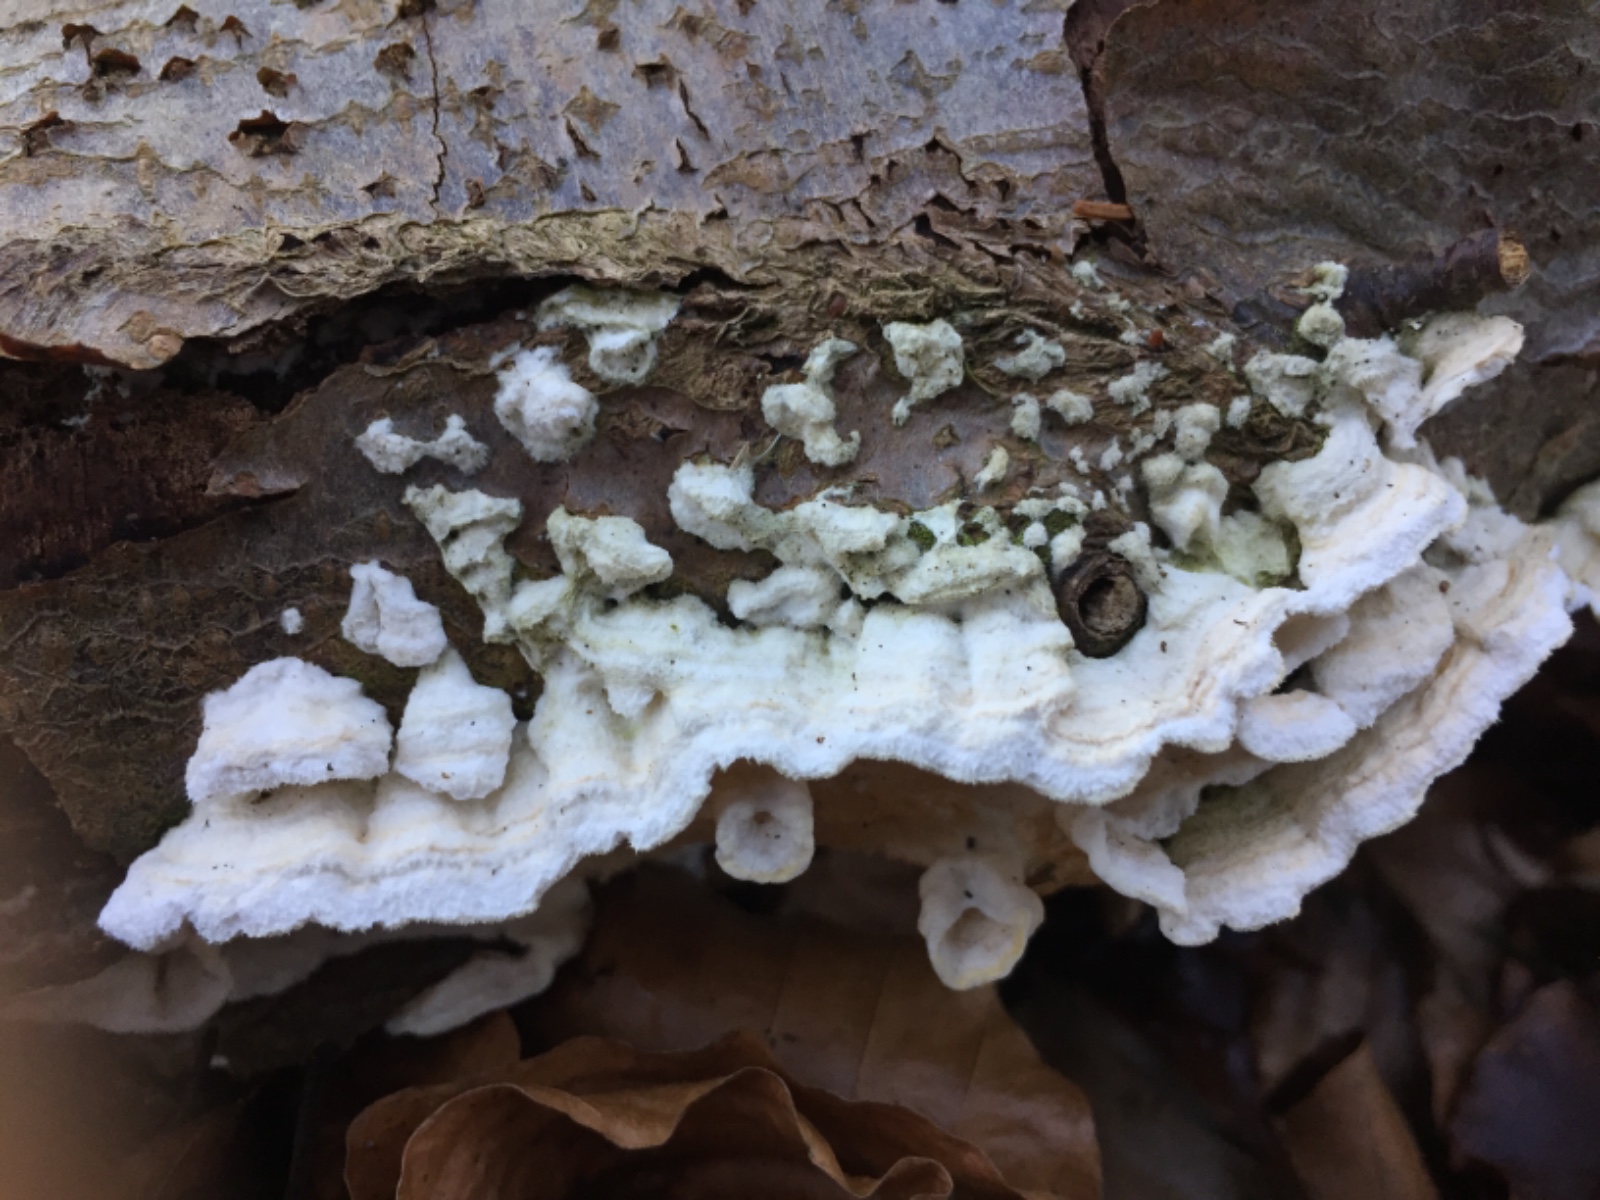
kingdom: Fungi
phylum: Basidiomycota
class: Agaricomycetes
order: Polyporales
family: Irpicaceae
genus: Byssomerulius
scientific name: Byssomerulius corium
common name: læder-åresvamp
